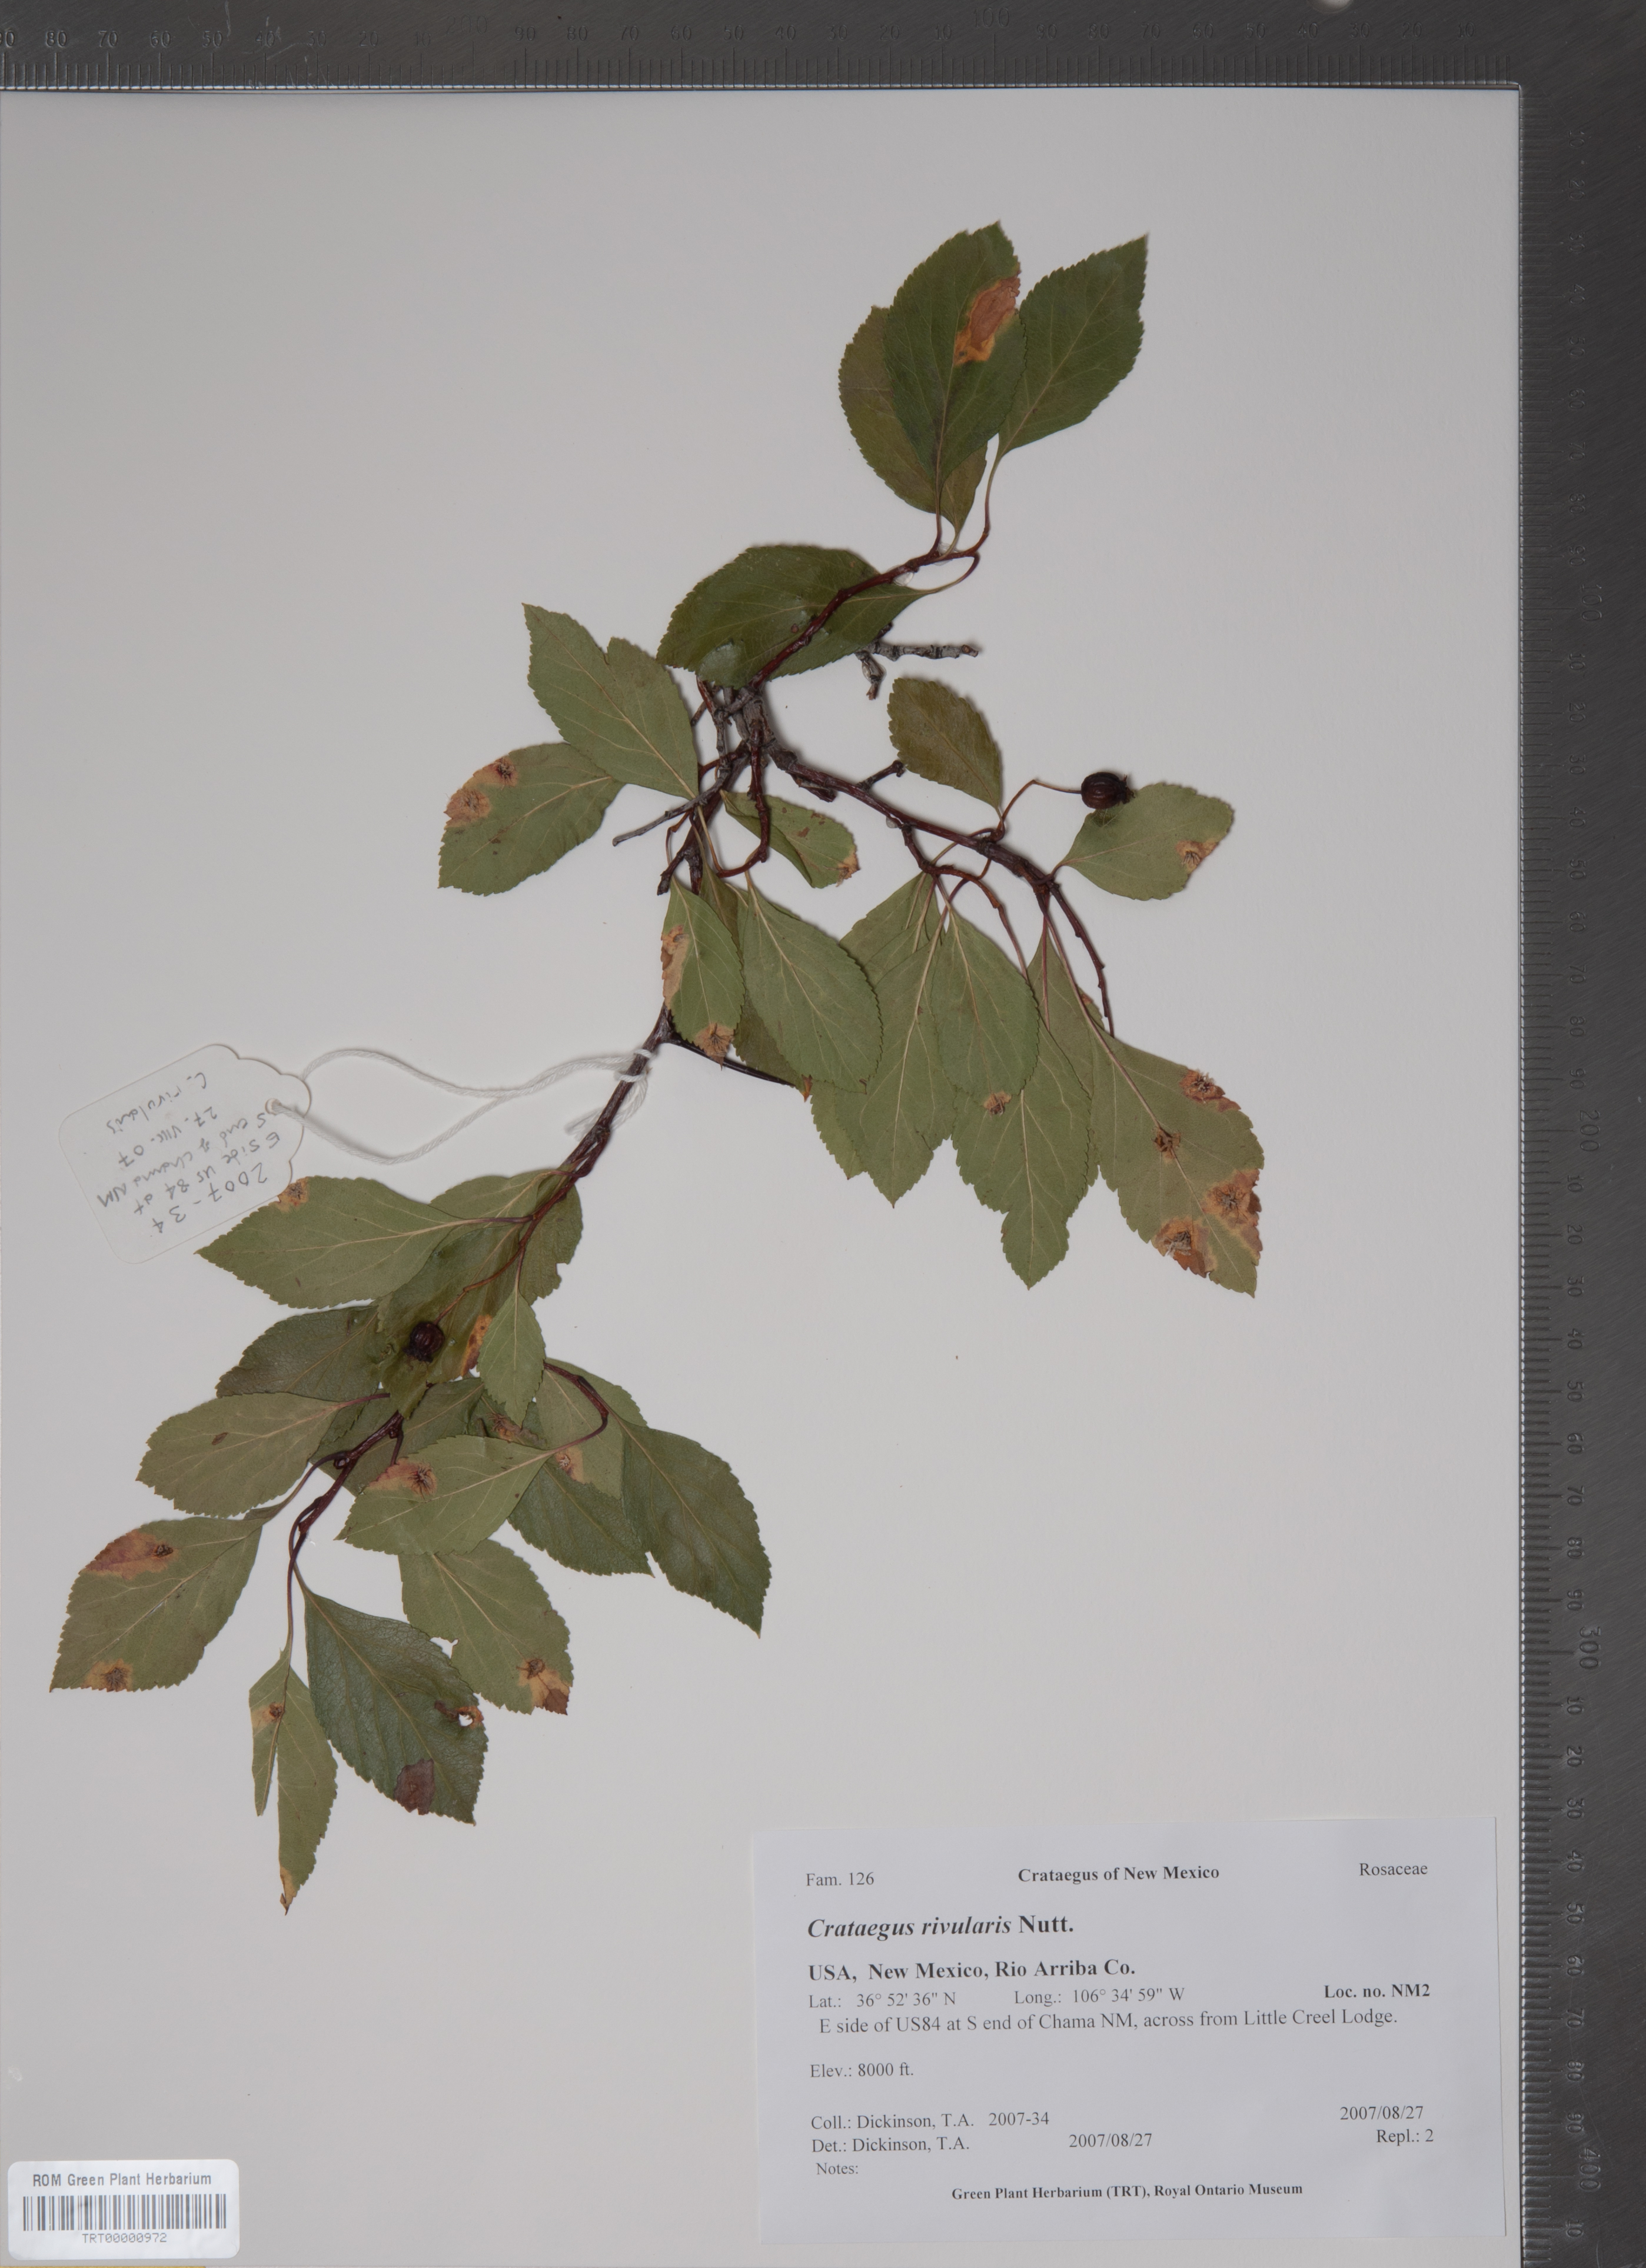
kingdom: Plantae
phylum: Tracheophyta
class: Magnoliopsida
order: Rosales
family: Rosaceae
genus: Crataegus
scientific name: Crataegus rivularis
